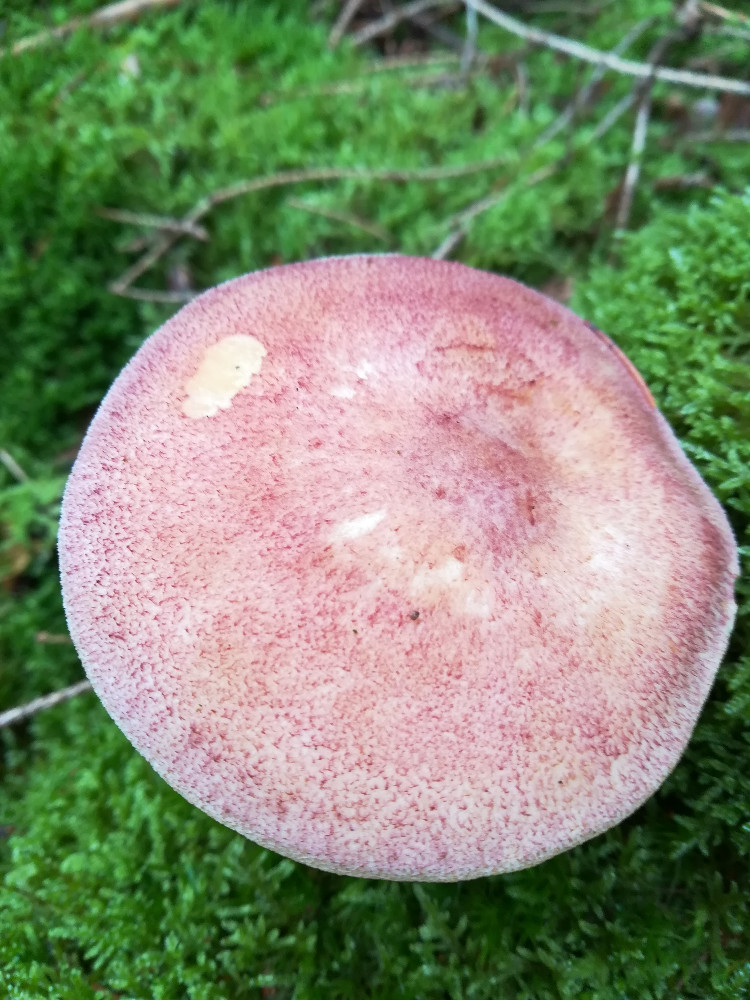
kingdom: Fungi
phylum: Basidiomycota
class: Agaricomycetes
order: Agaricales
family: Tricholomataceae
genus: Tricholomopsis
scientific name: Tricholomopsis rutilans
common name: purpur-væbnerhat
